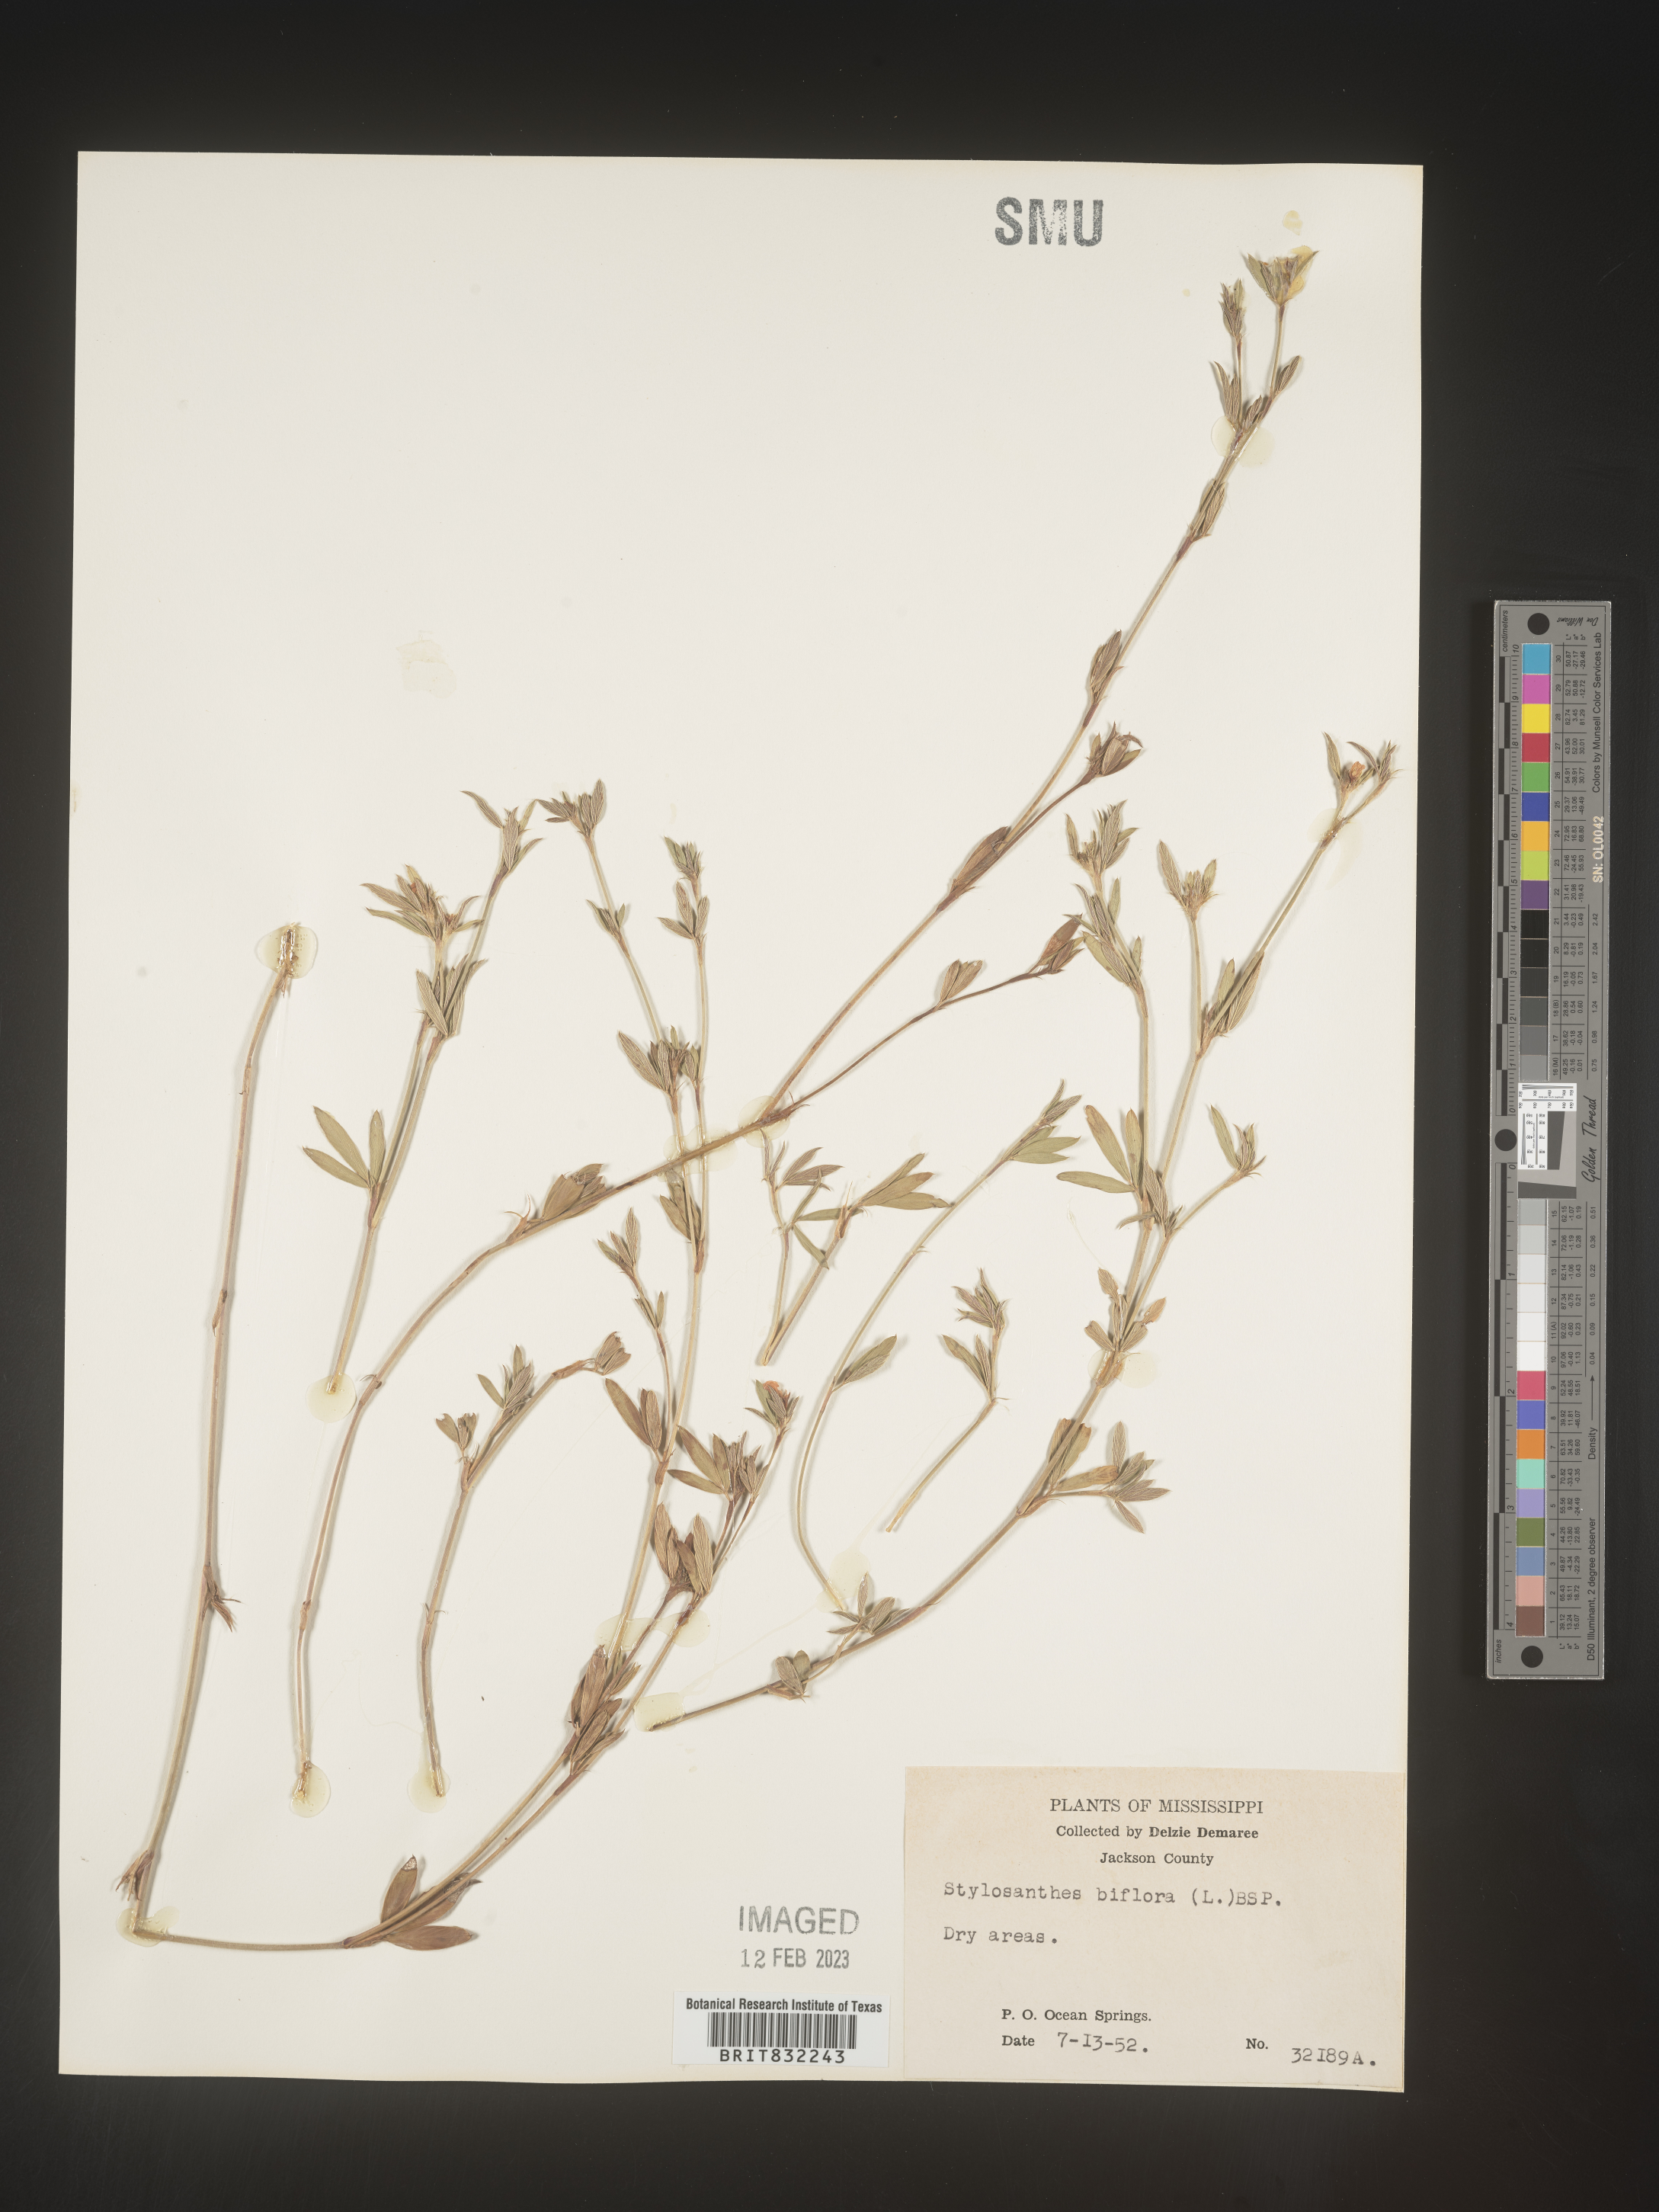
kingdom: Plantae
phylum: Tracheophyta
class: Magnoliopsida
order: Fabales
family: Fabaceae
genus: Stylosanthes
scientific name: Stylosanthes biflora
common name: Two-flower pencil-flower
